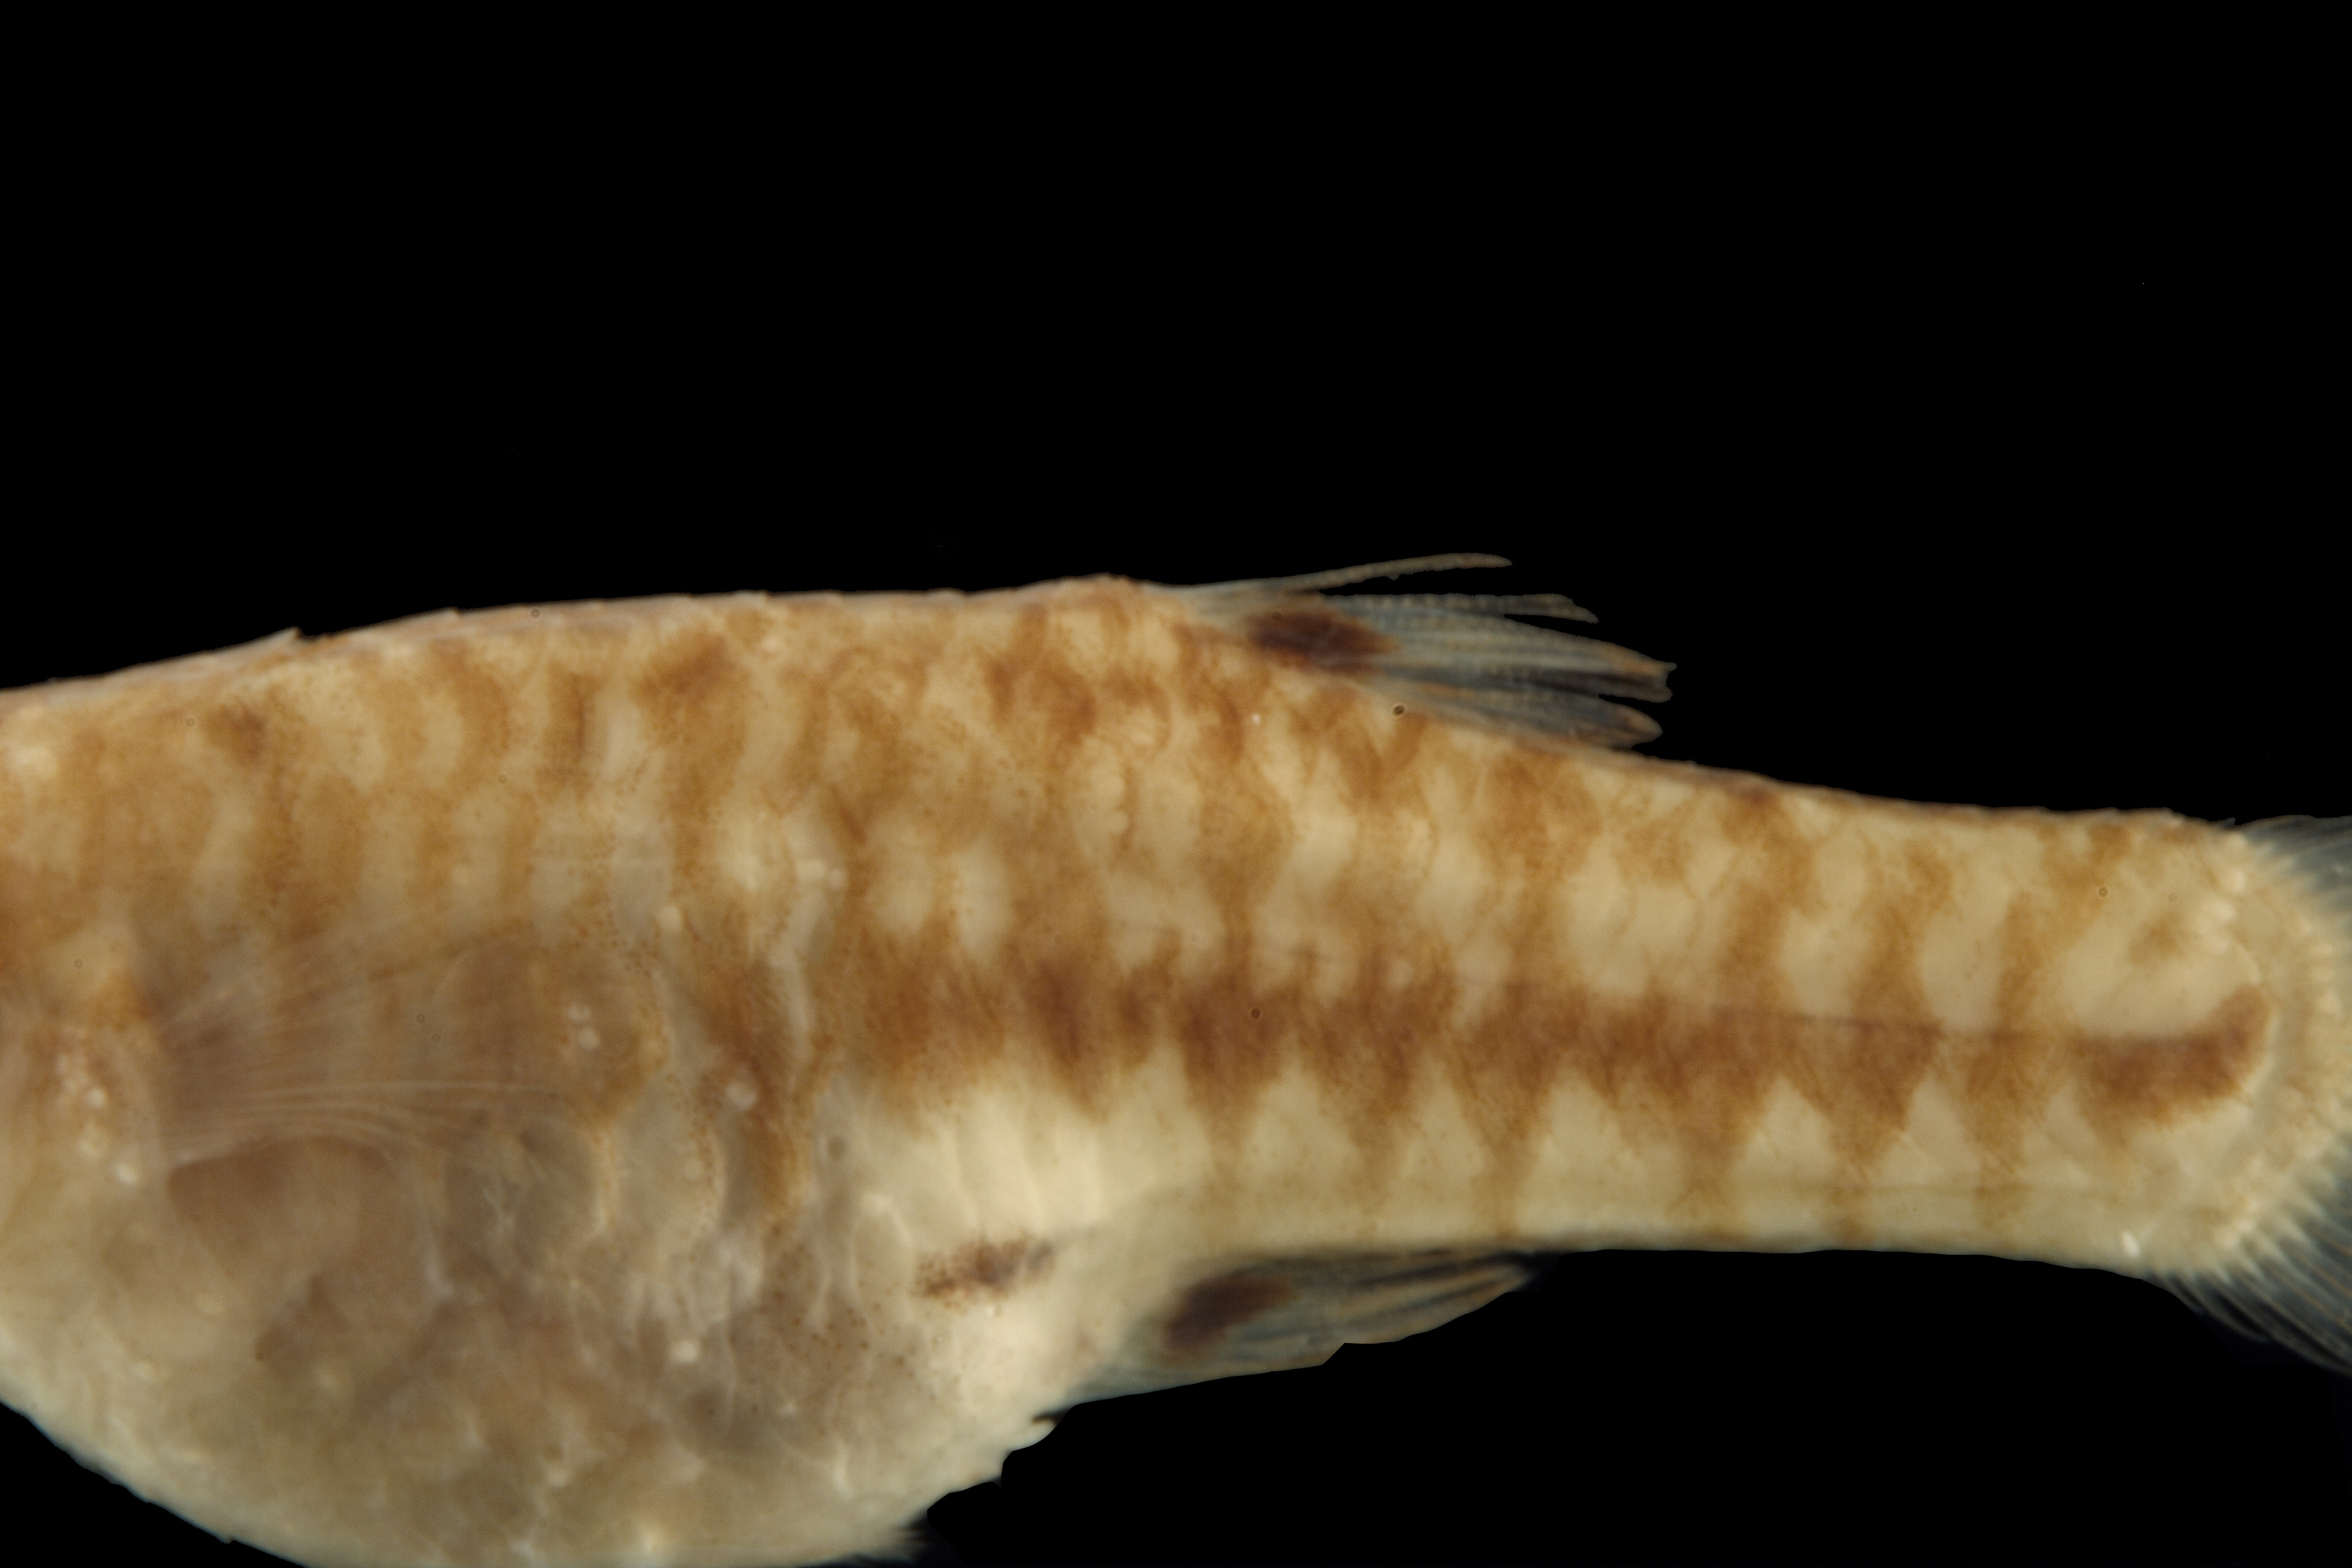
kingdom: Animalia
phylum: Chordata
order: Cyprinodontiformes
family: Poeciliidae
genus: Heterandria
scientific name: Heterandria formosa
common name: Least killifish
